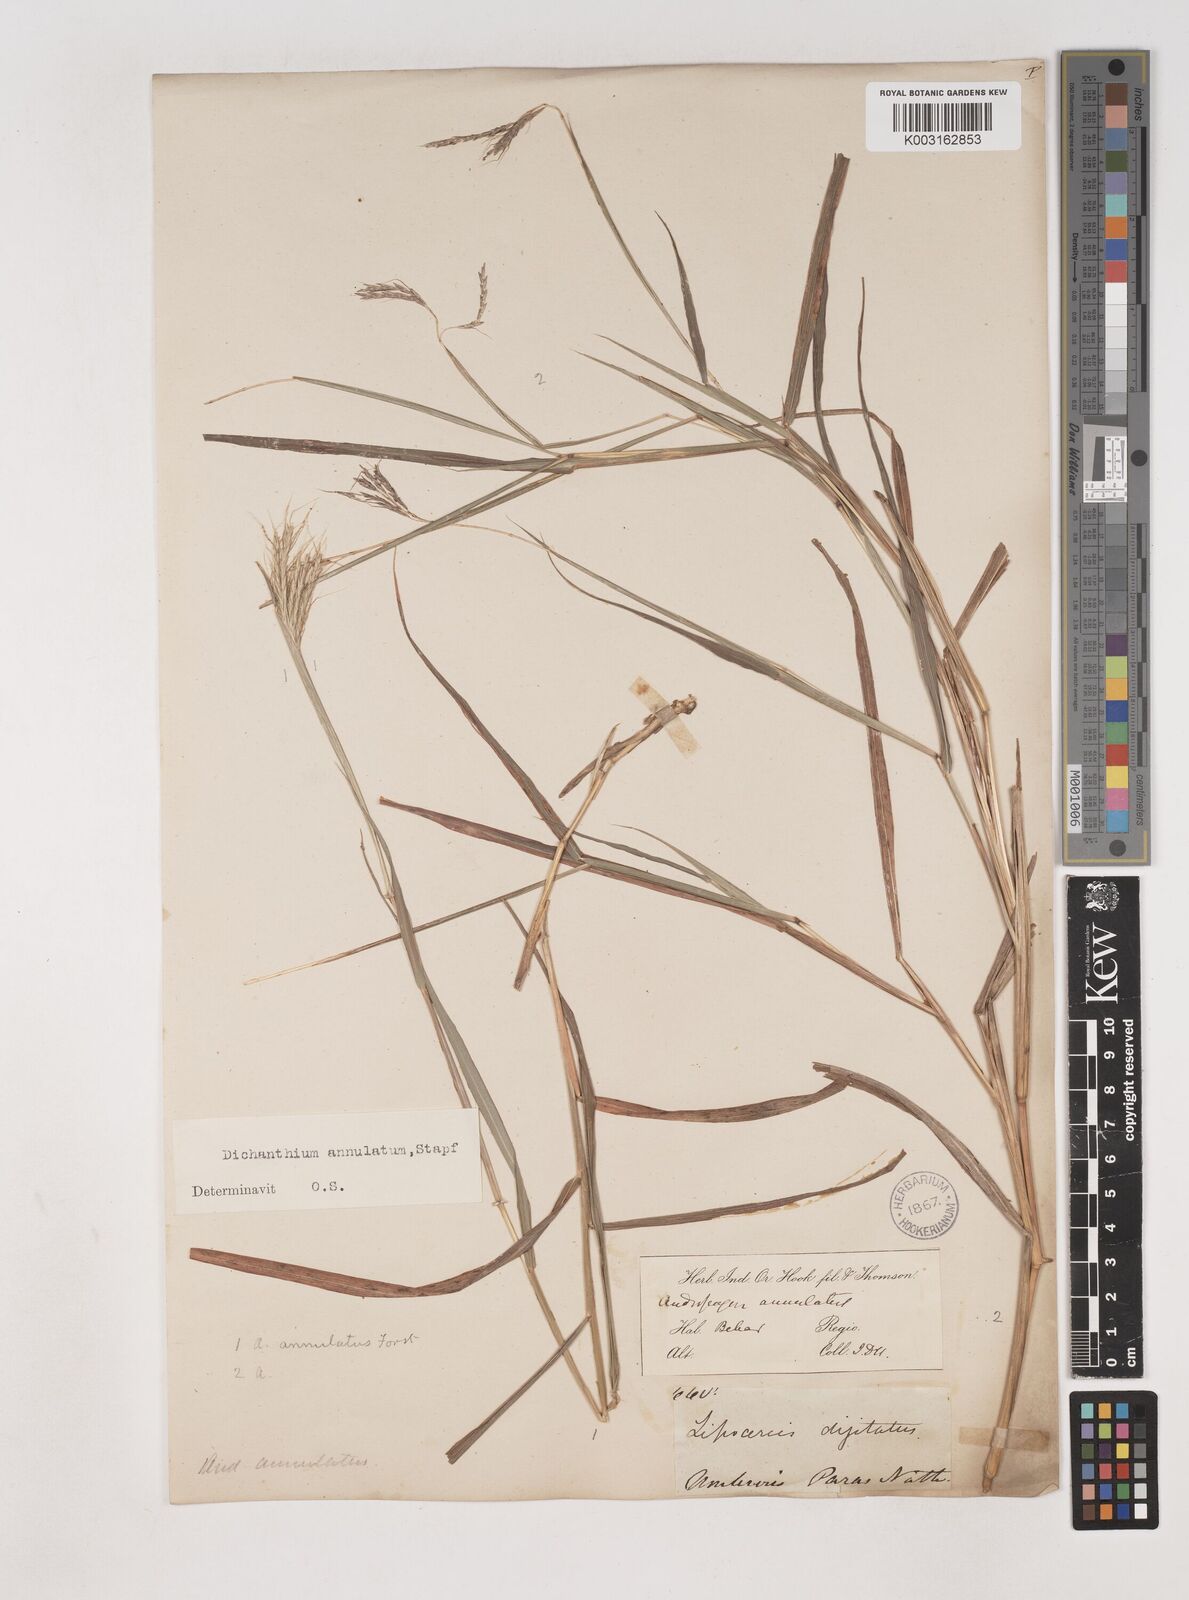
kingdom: Plantae
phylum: Tracheophyta
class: Liliopsida
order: Poales
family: Poaceae
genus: Dichanthium
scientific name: Dichanthium annulatum
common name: Kleberg's bluestem
